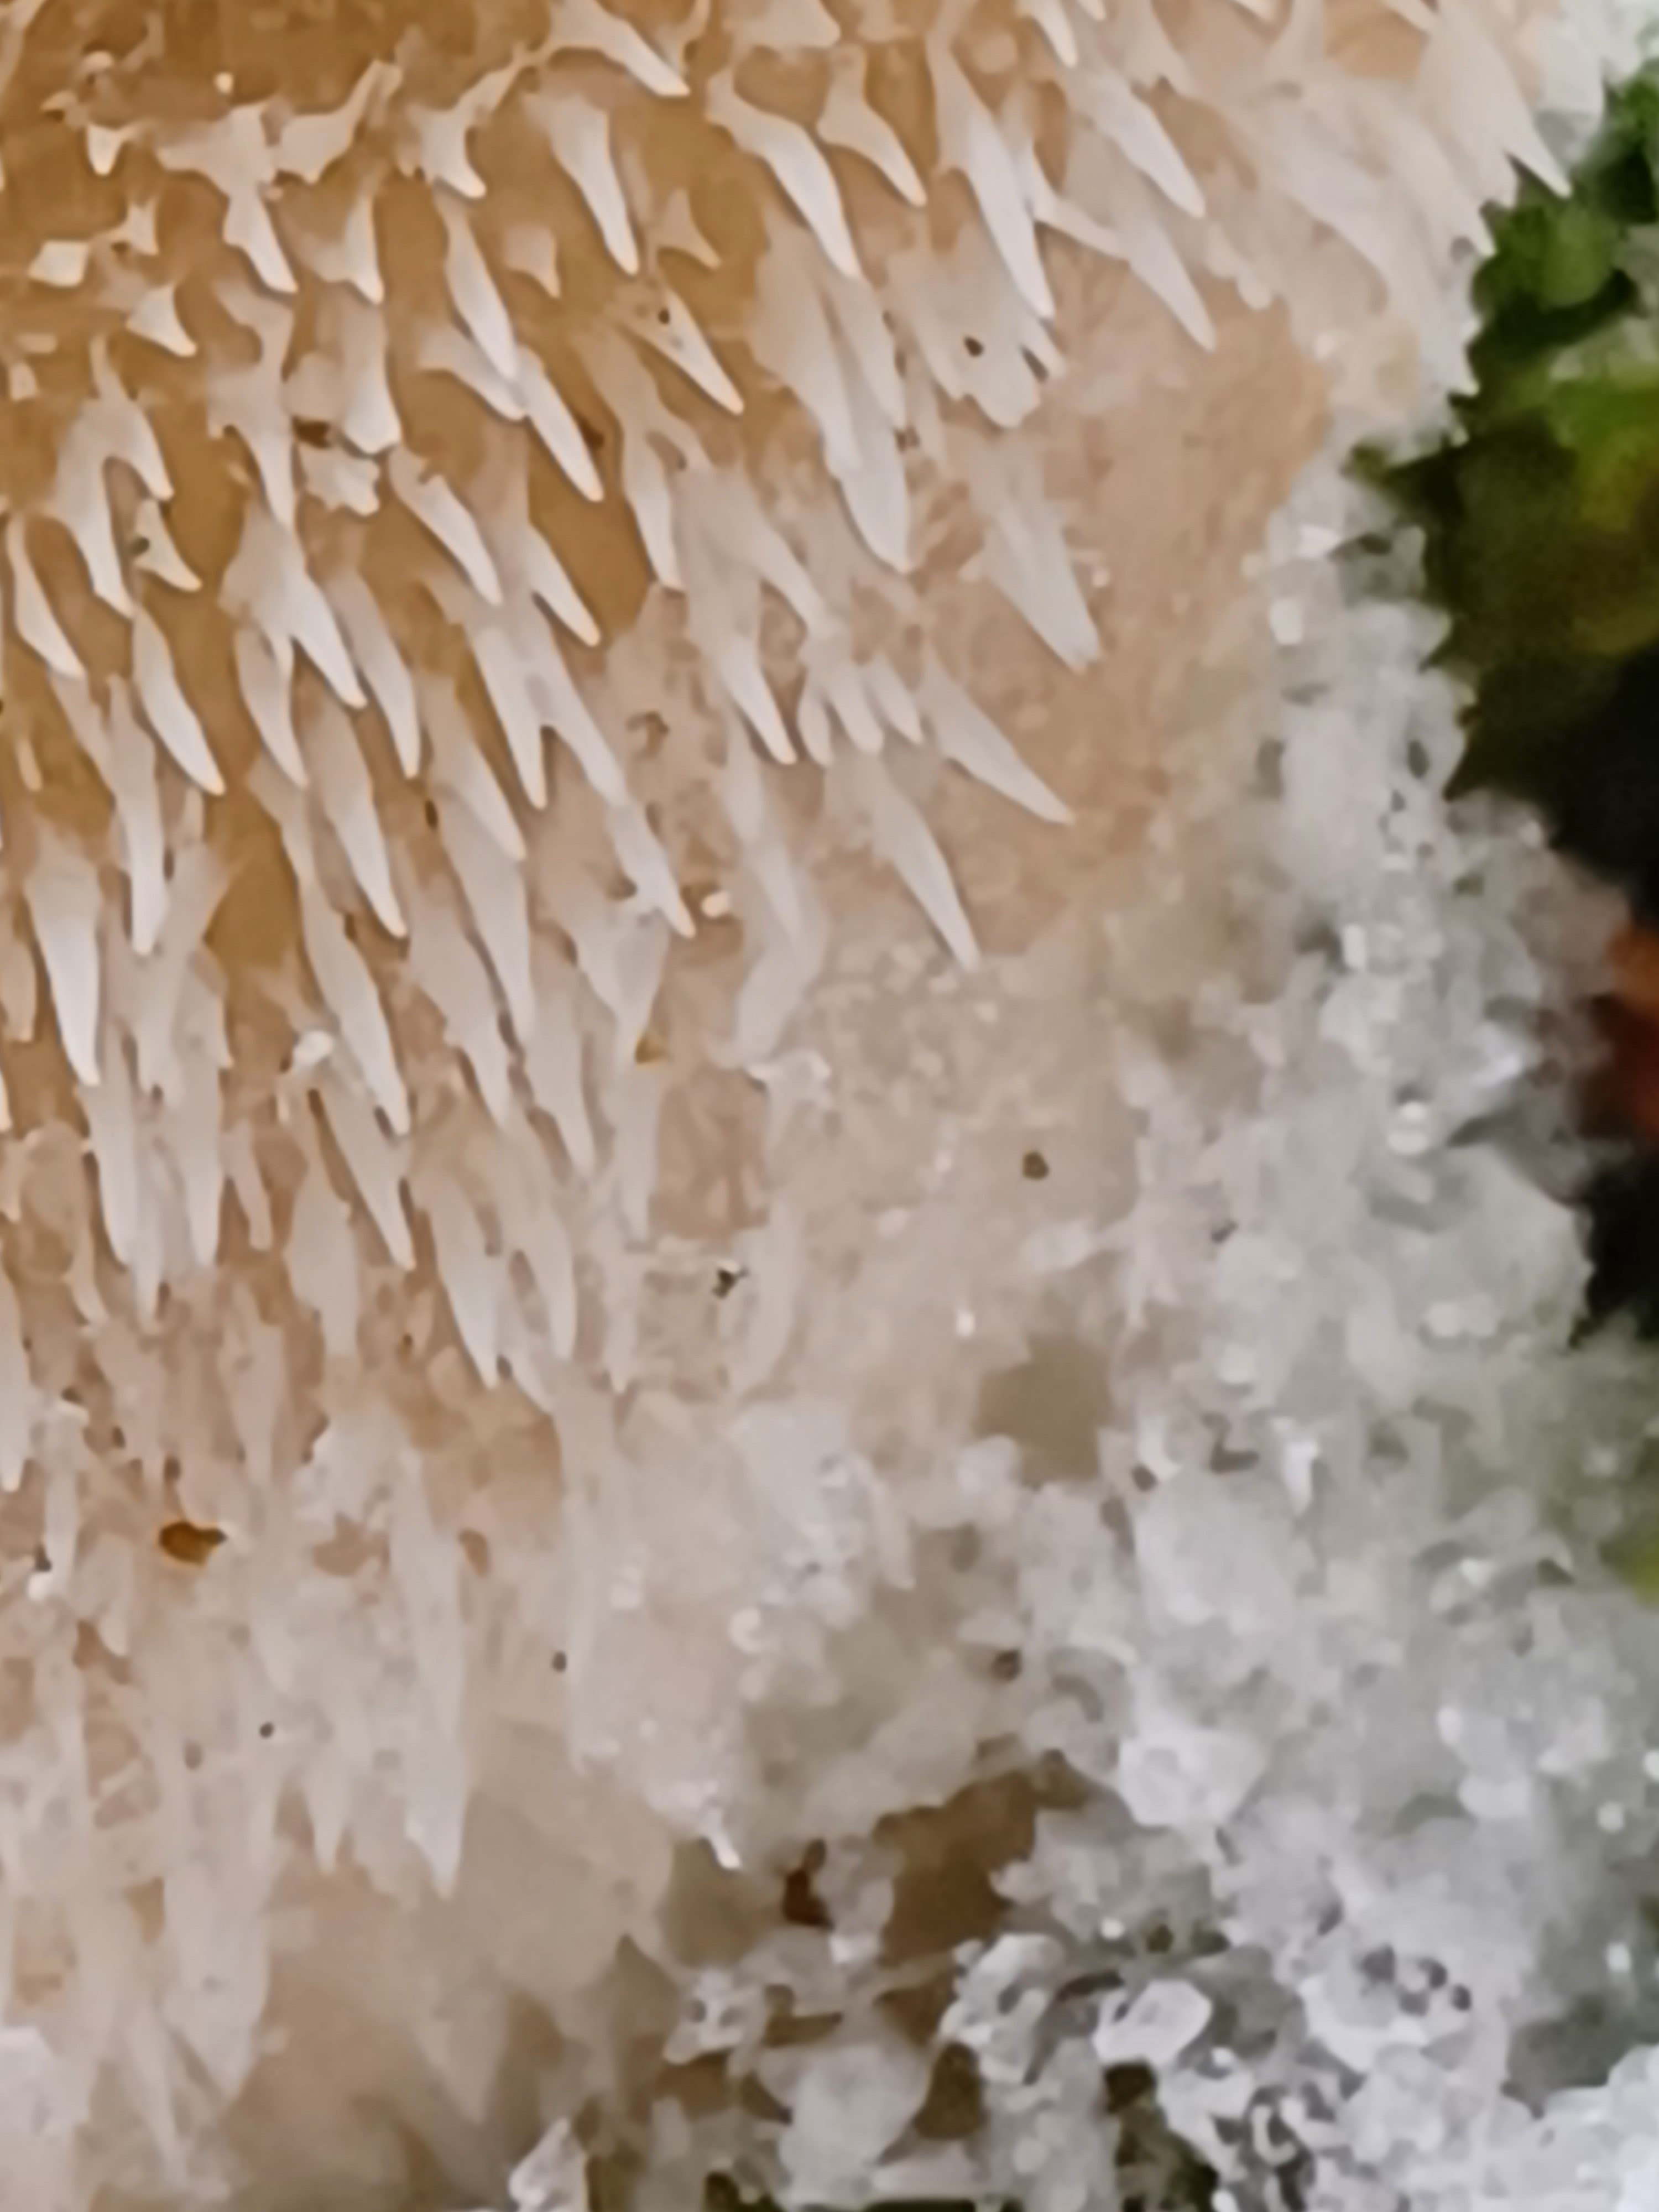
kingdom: Fungi
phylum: Basidiomycota
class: Agaricomycetes
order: Auriculariales
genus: Pseudohydnum
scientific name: Pseudohydnum gelatinosum
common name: bævretand
